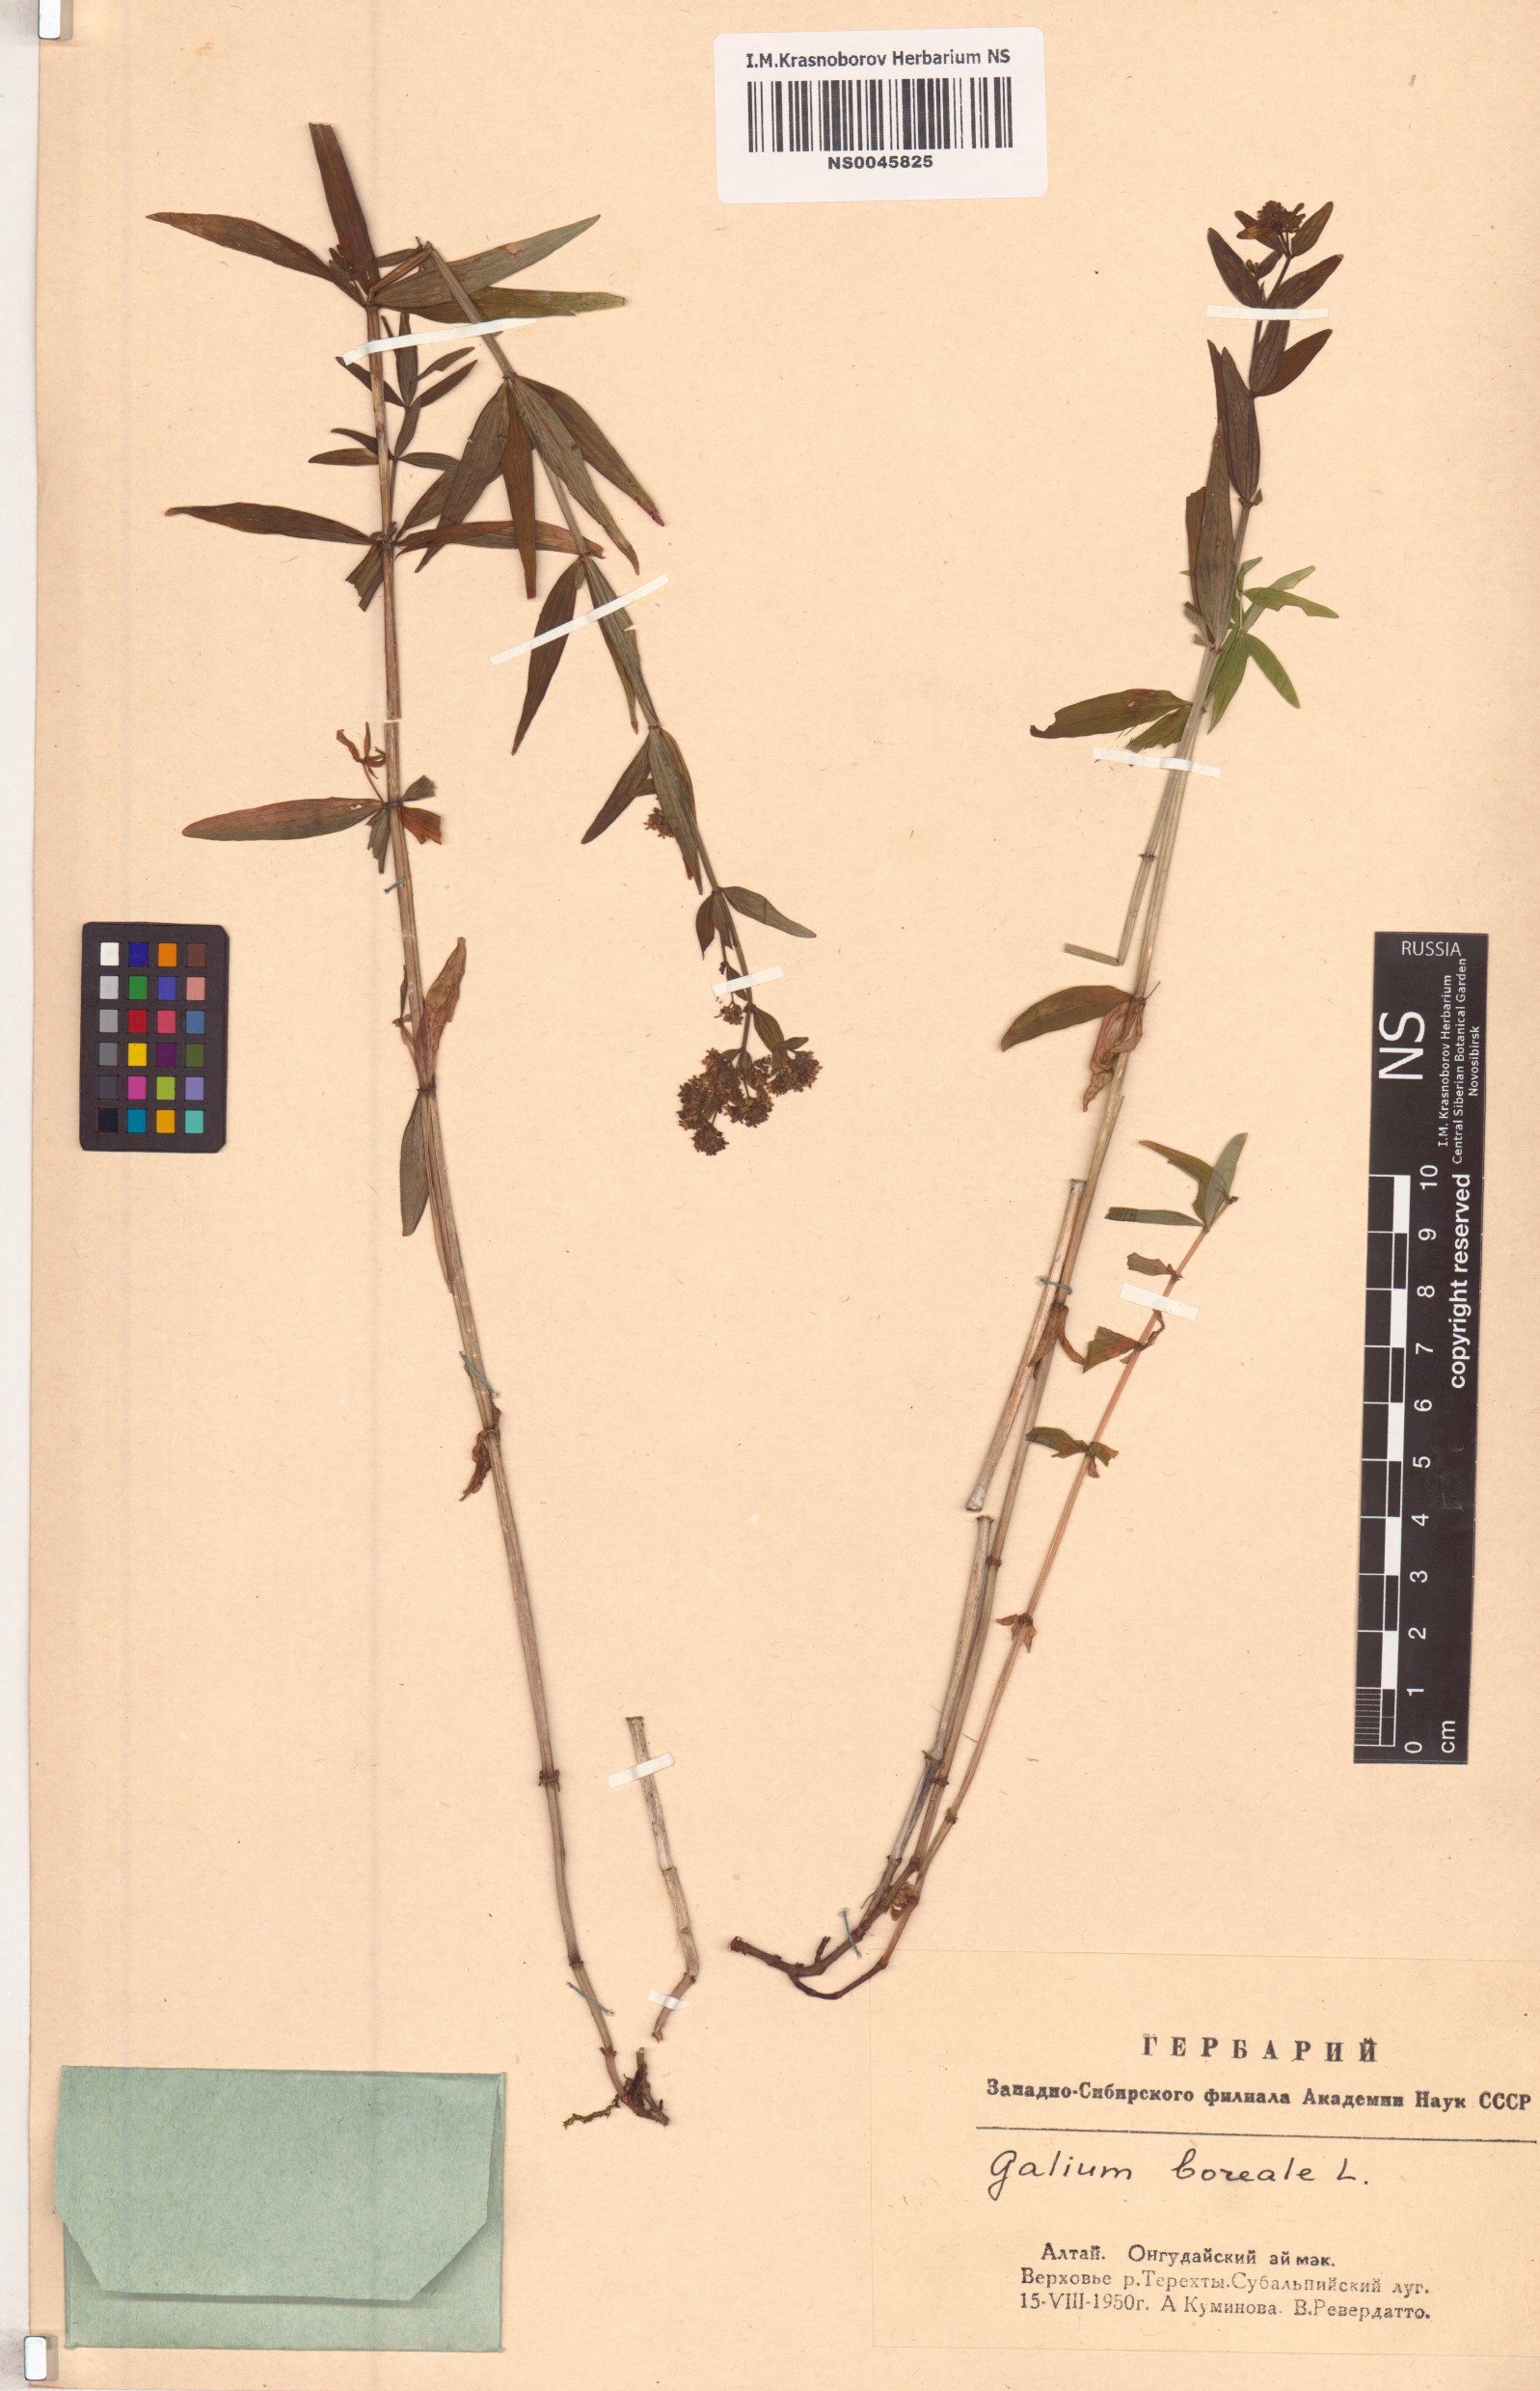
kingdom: Plantae
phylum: Tracheophyta
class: Magnoliopsida
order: Gentianales
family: Rubiaceae
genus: Galium
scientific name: Galium boreale
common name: Northern bedstraw
